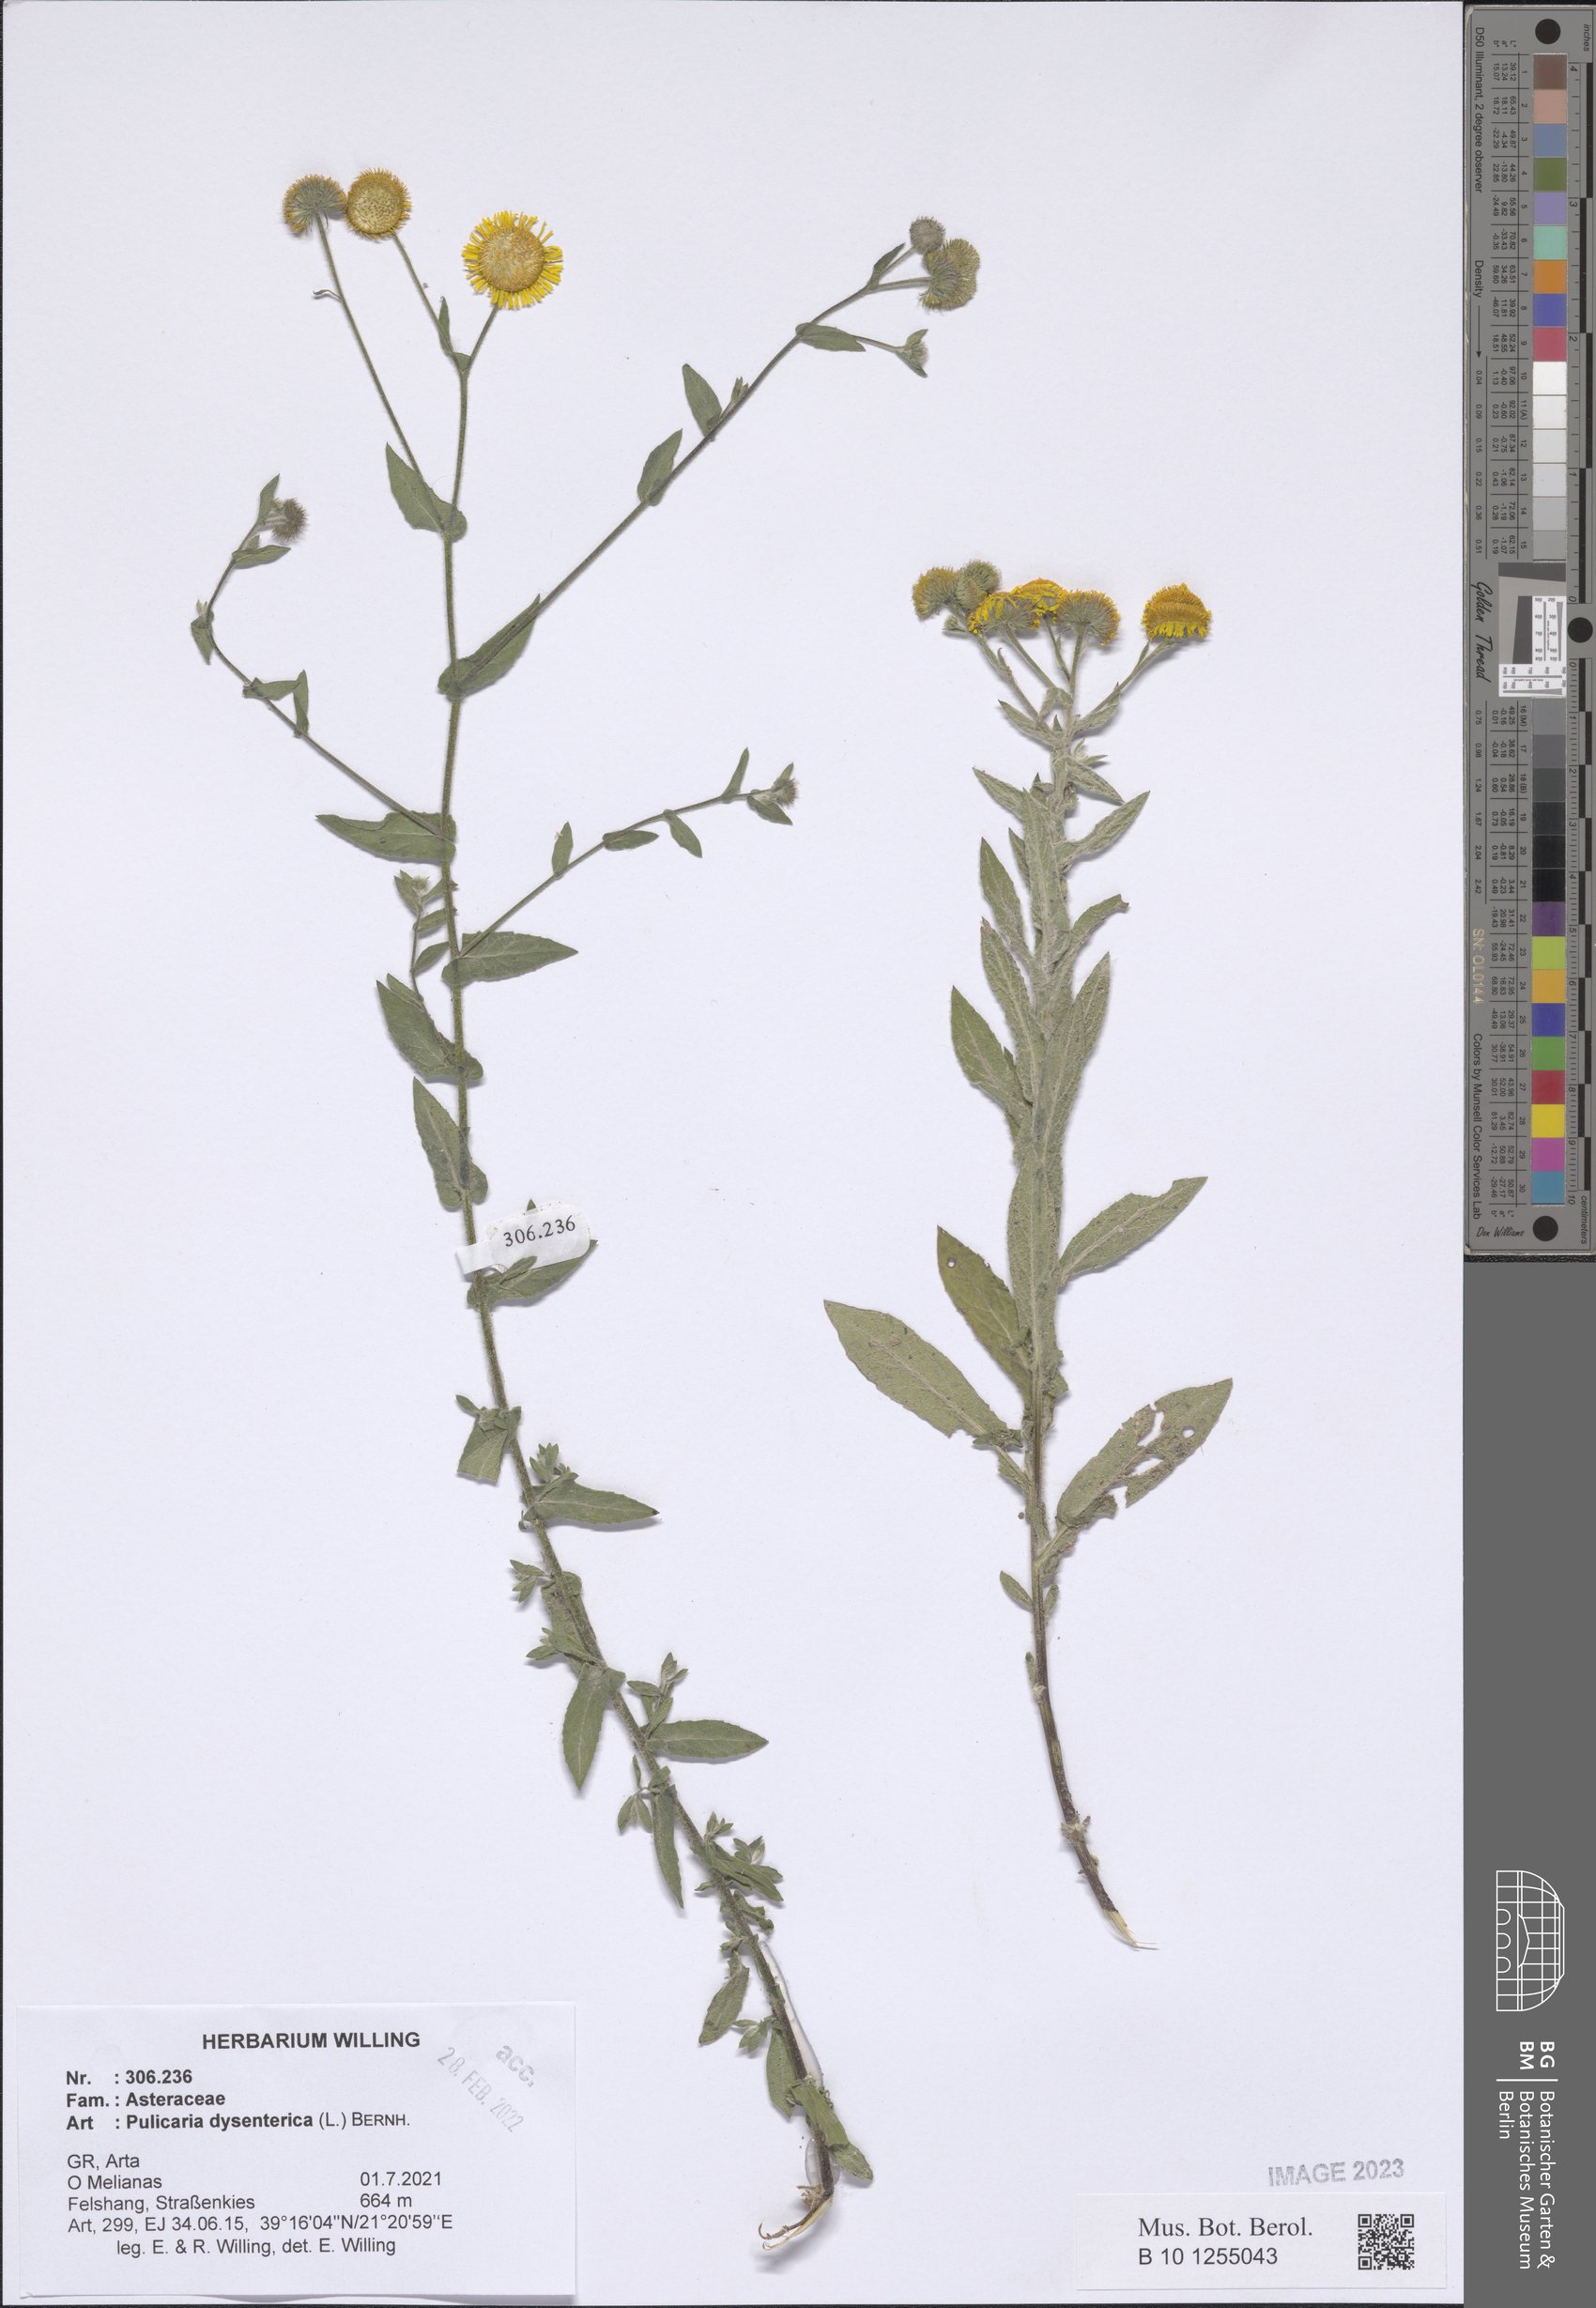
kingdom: Plantae
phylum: Tracheophyta
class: Magnoliopsida
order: Asterales
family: Asteraceae
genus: Pulicaria
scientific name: Pulicaria dysenterica
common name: Common fleabane
